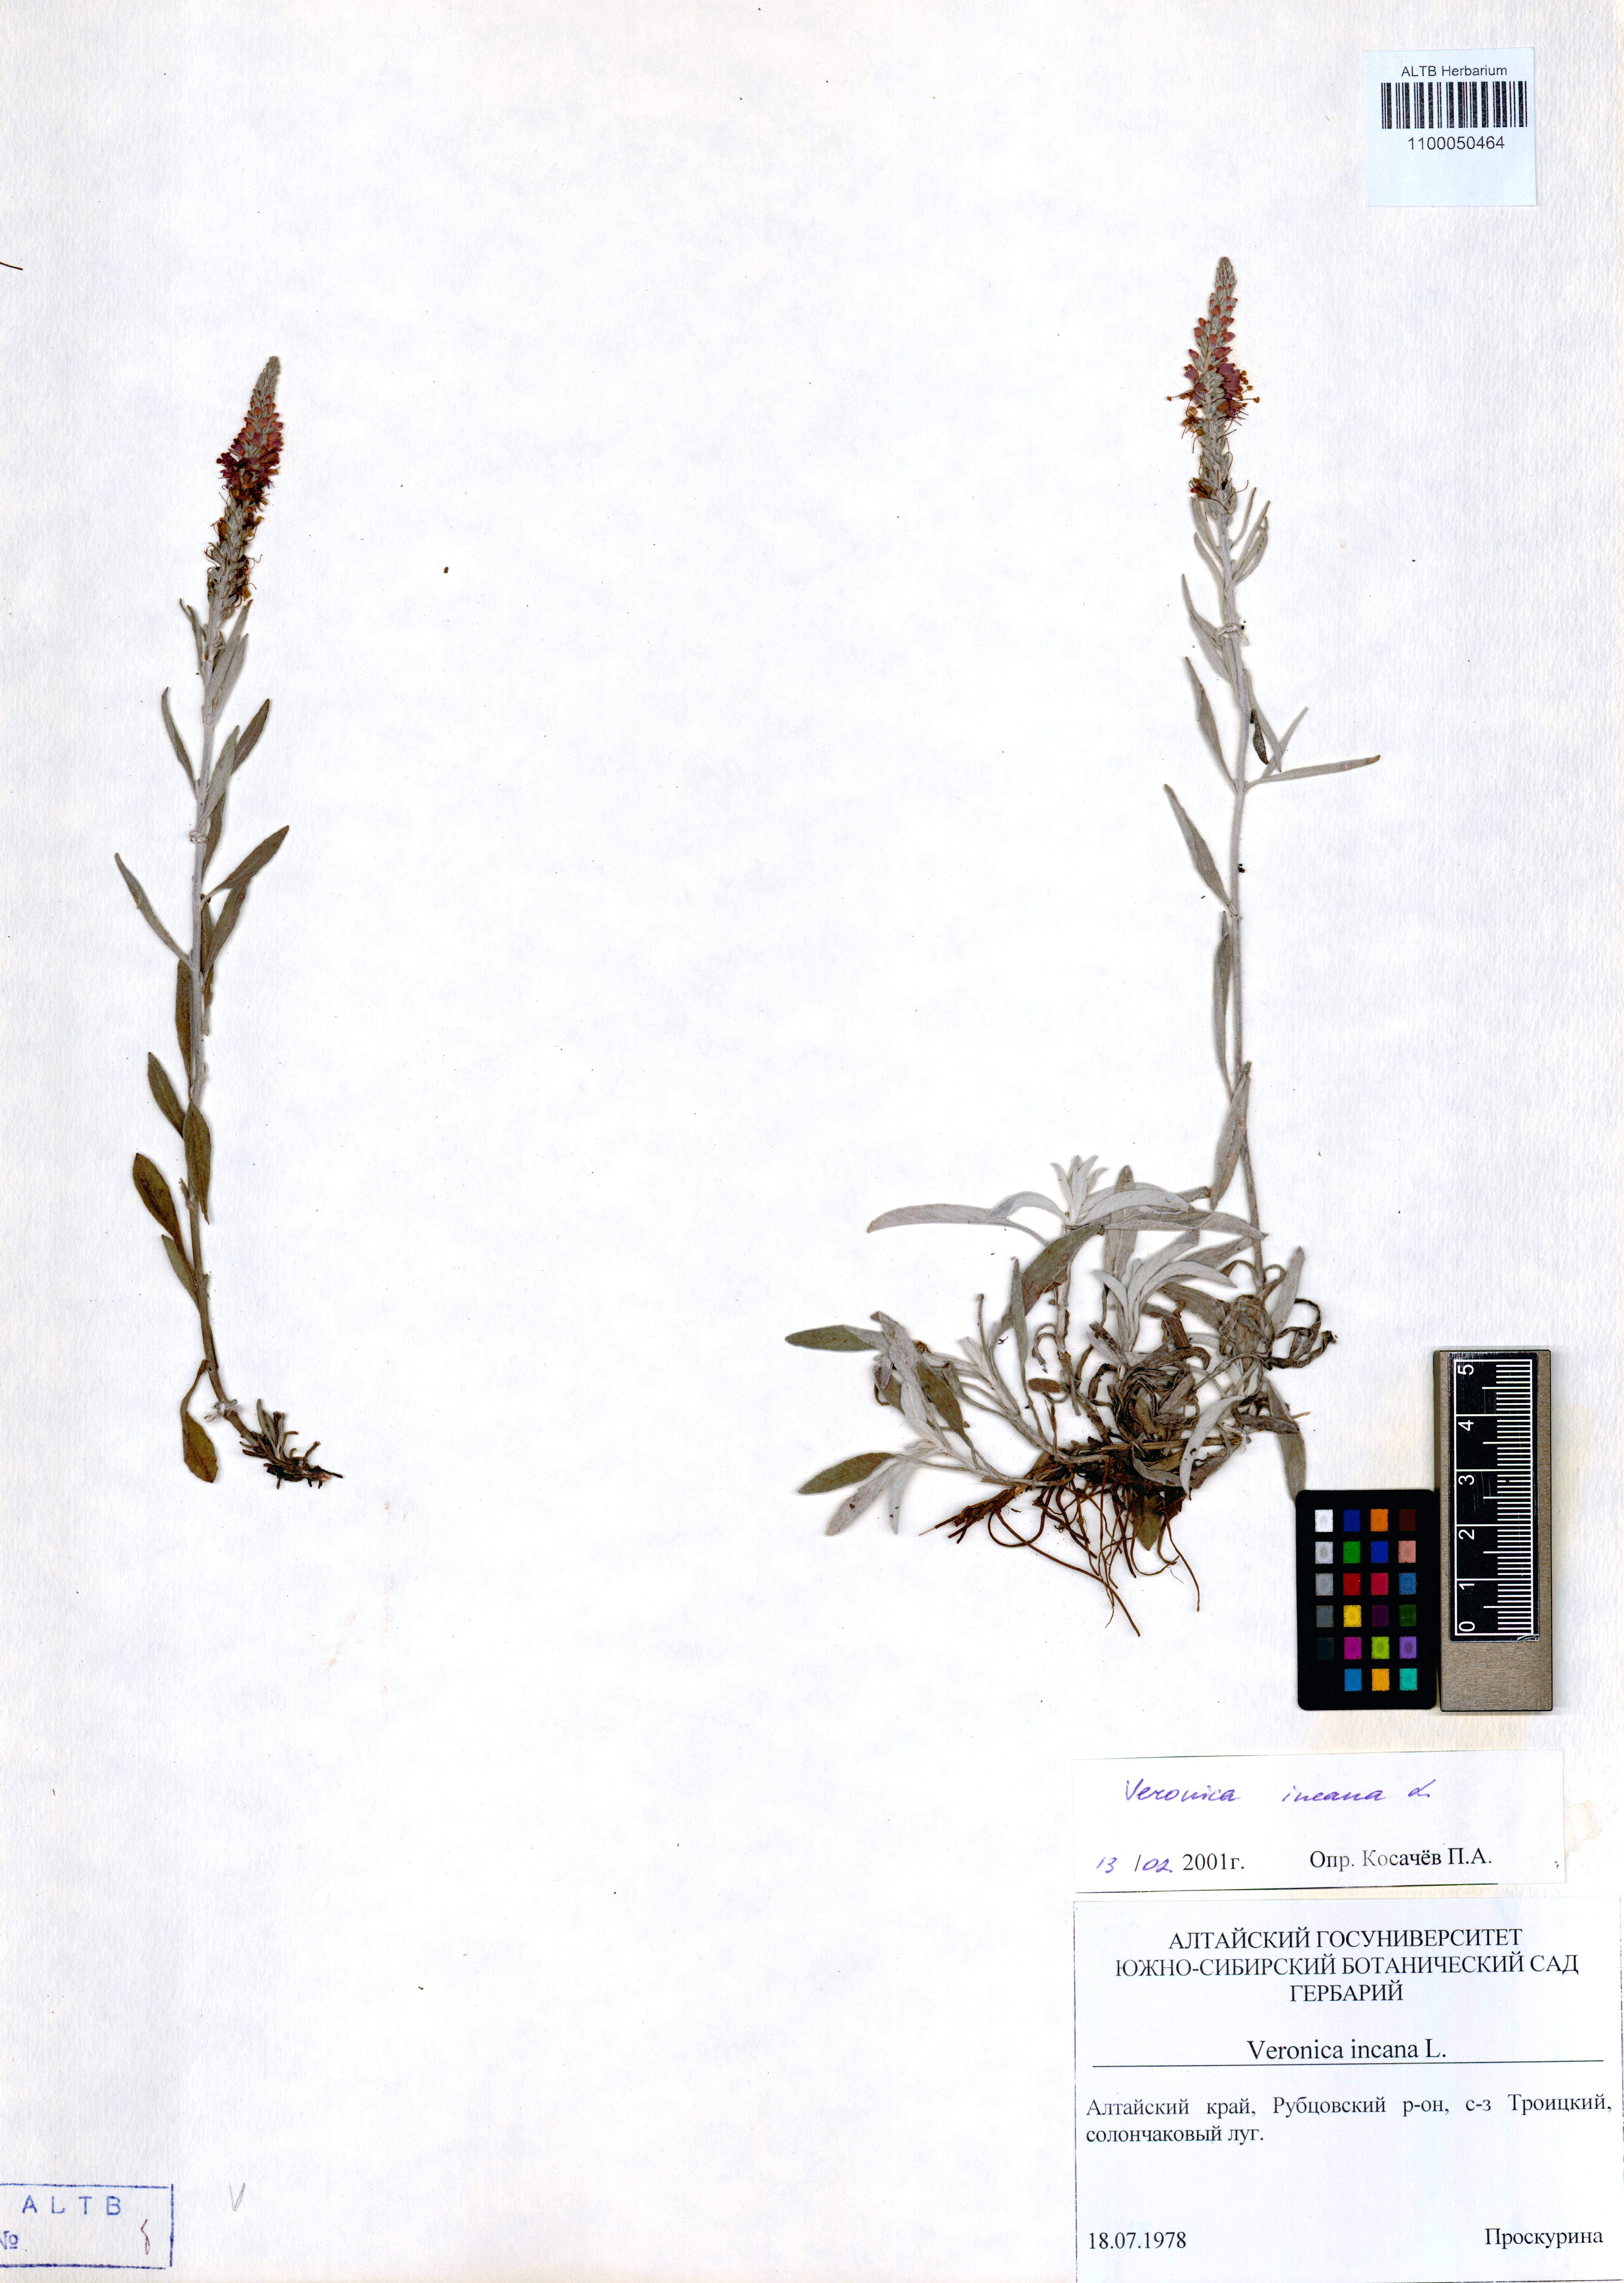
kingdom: Plantae
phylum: Tracheophyta
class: Magnoliopsida
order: Lamiales
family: Plantaginaceae
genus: Veronica
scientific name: Veronica incana
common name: Silver speedwell
